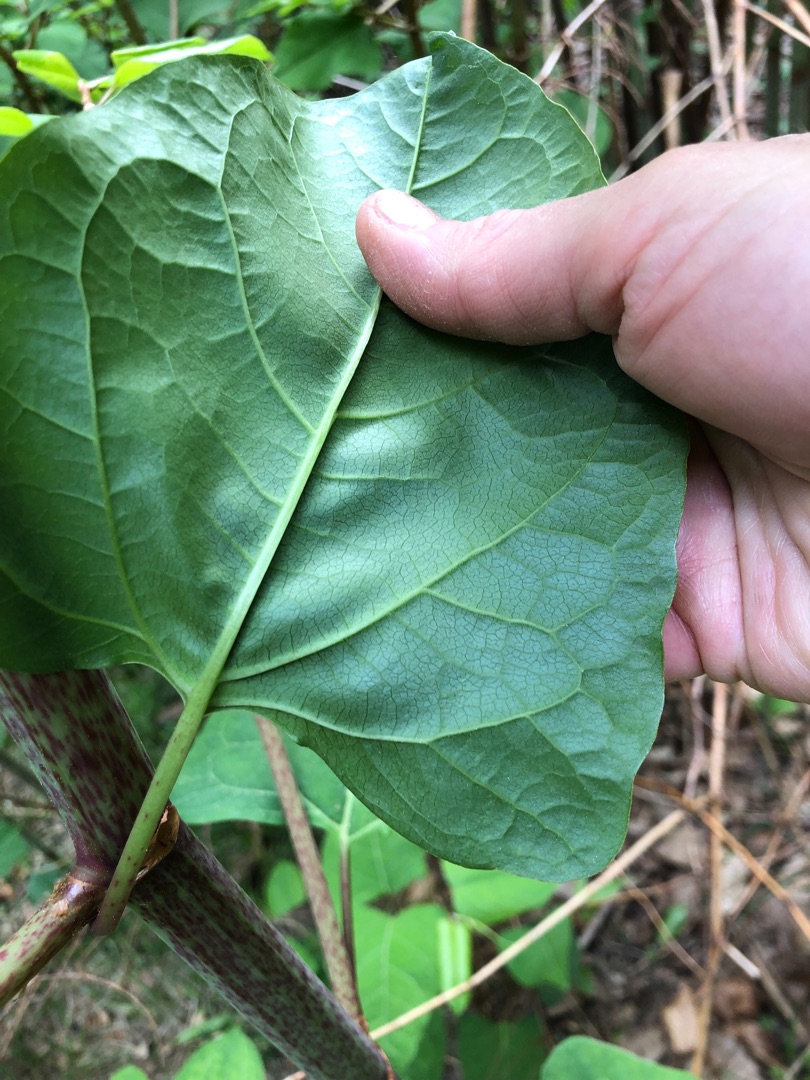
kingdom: Plantae
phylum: Tracheophyta
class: Magnoliopsida
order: Caryophyllales
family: Polygonaceae
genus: Reynoutria
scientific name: Reynoutria bohemica
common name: Hybrid-pileurt
